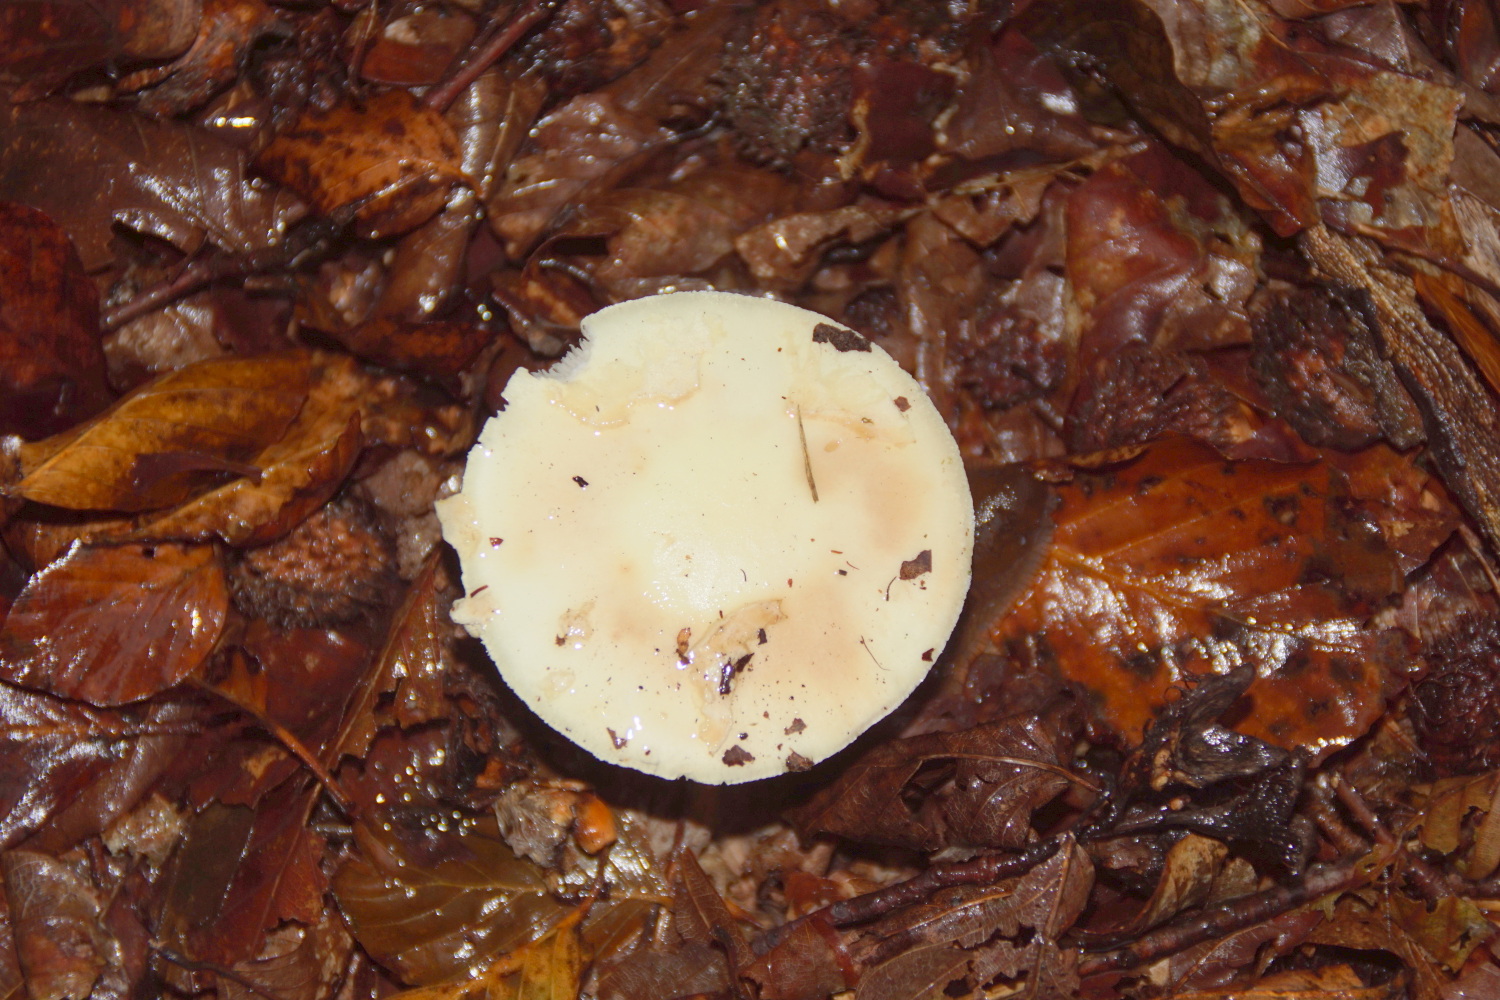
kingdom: Fungi
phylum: Basidiomycota
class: Agaricomycetes
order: Agaricales
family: Amanitaceae
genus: Amanita
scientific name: Amanita citrina
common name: False death-cap
